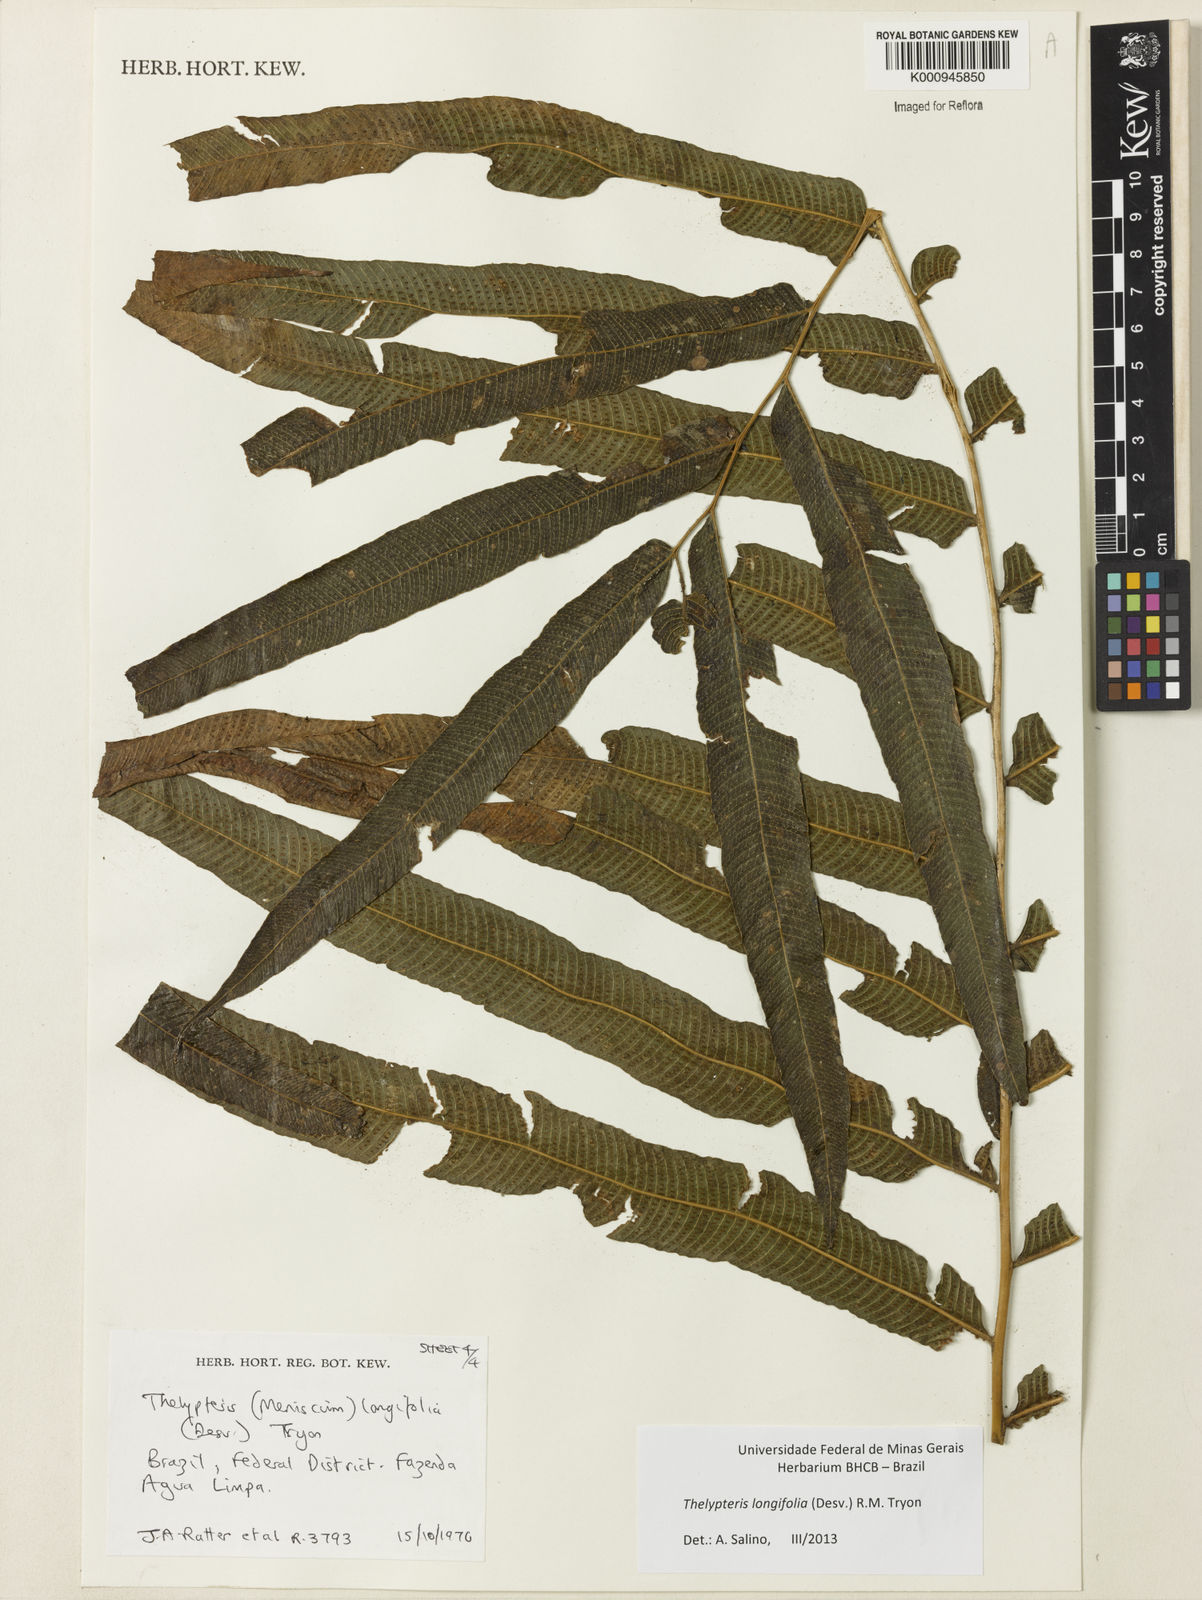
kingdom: Plantae
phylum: Tracheophyta
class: Polypodiopsida
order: Polypodiales
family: Thelypteridaceae
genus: Meniscium
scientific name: Meniscium longifolium
